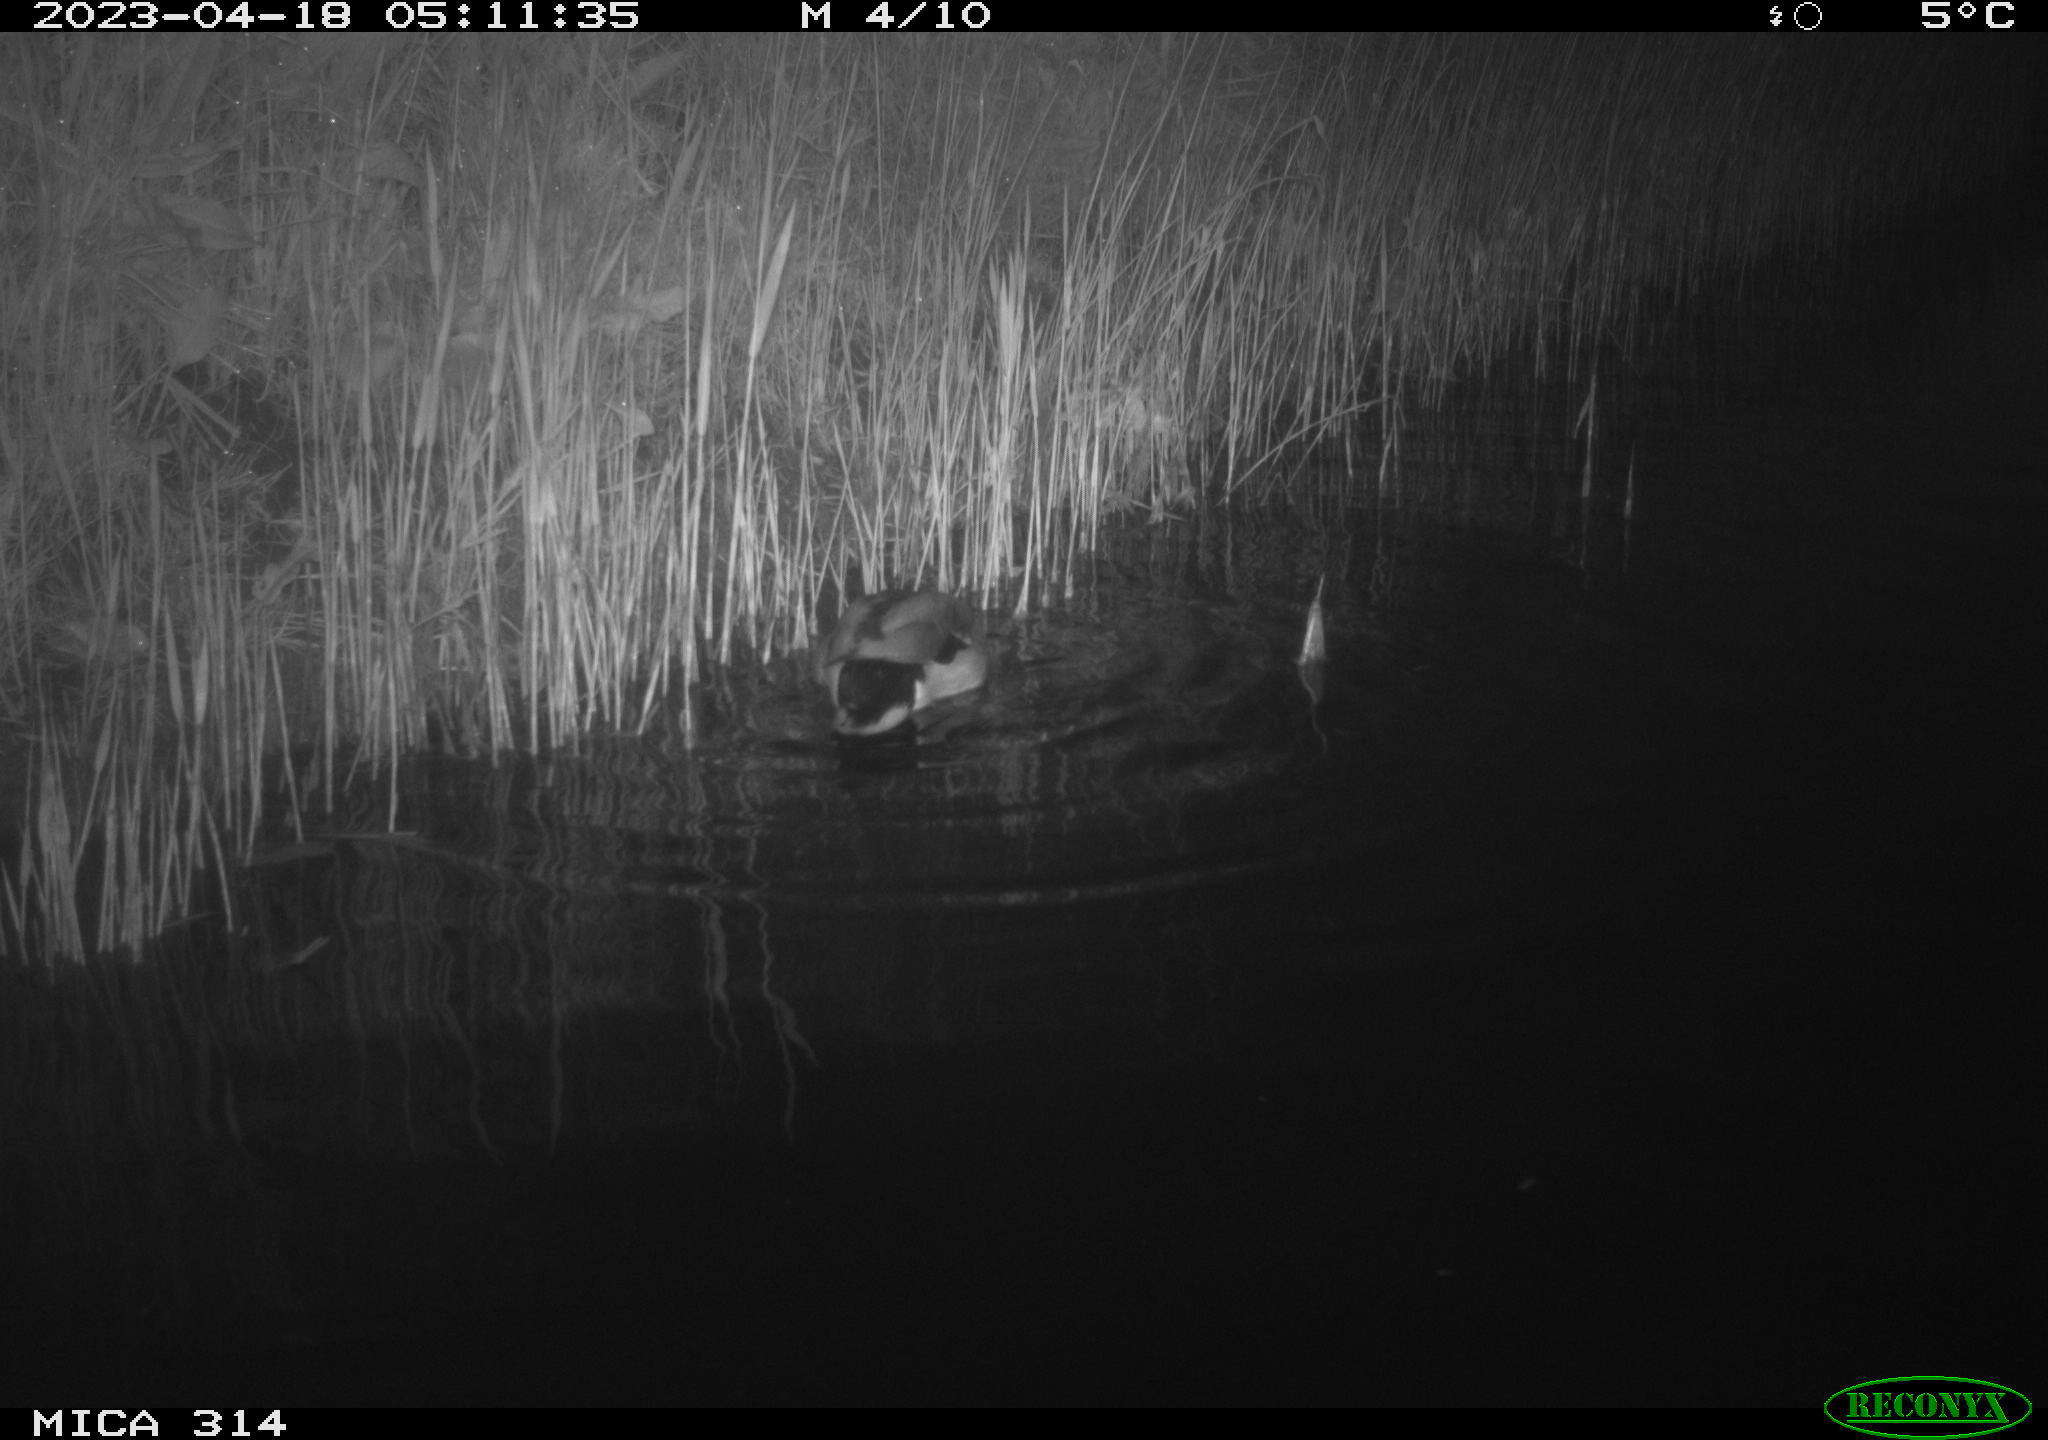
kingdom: Animalia
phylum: Chordata
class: Aves
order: Anseriformes
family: Anatidae
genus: Anas
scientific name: Anas
